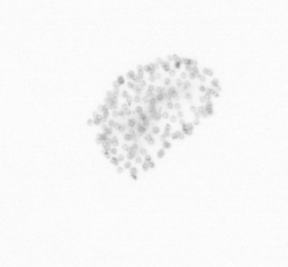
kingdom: Chromista
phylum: Ochrophyta
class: Bacillariophyceae
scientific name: Bacillariophyceae
